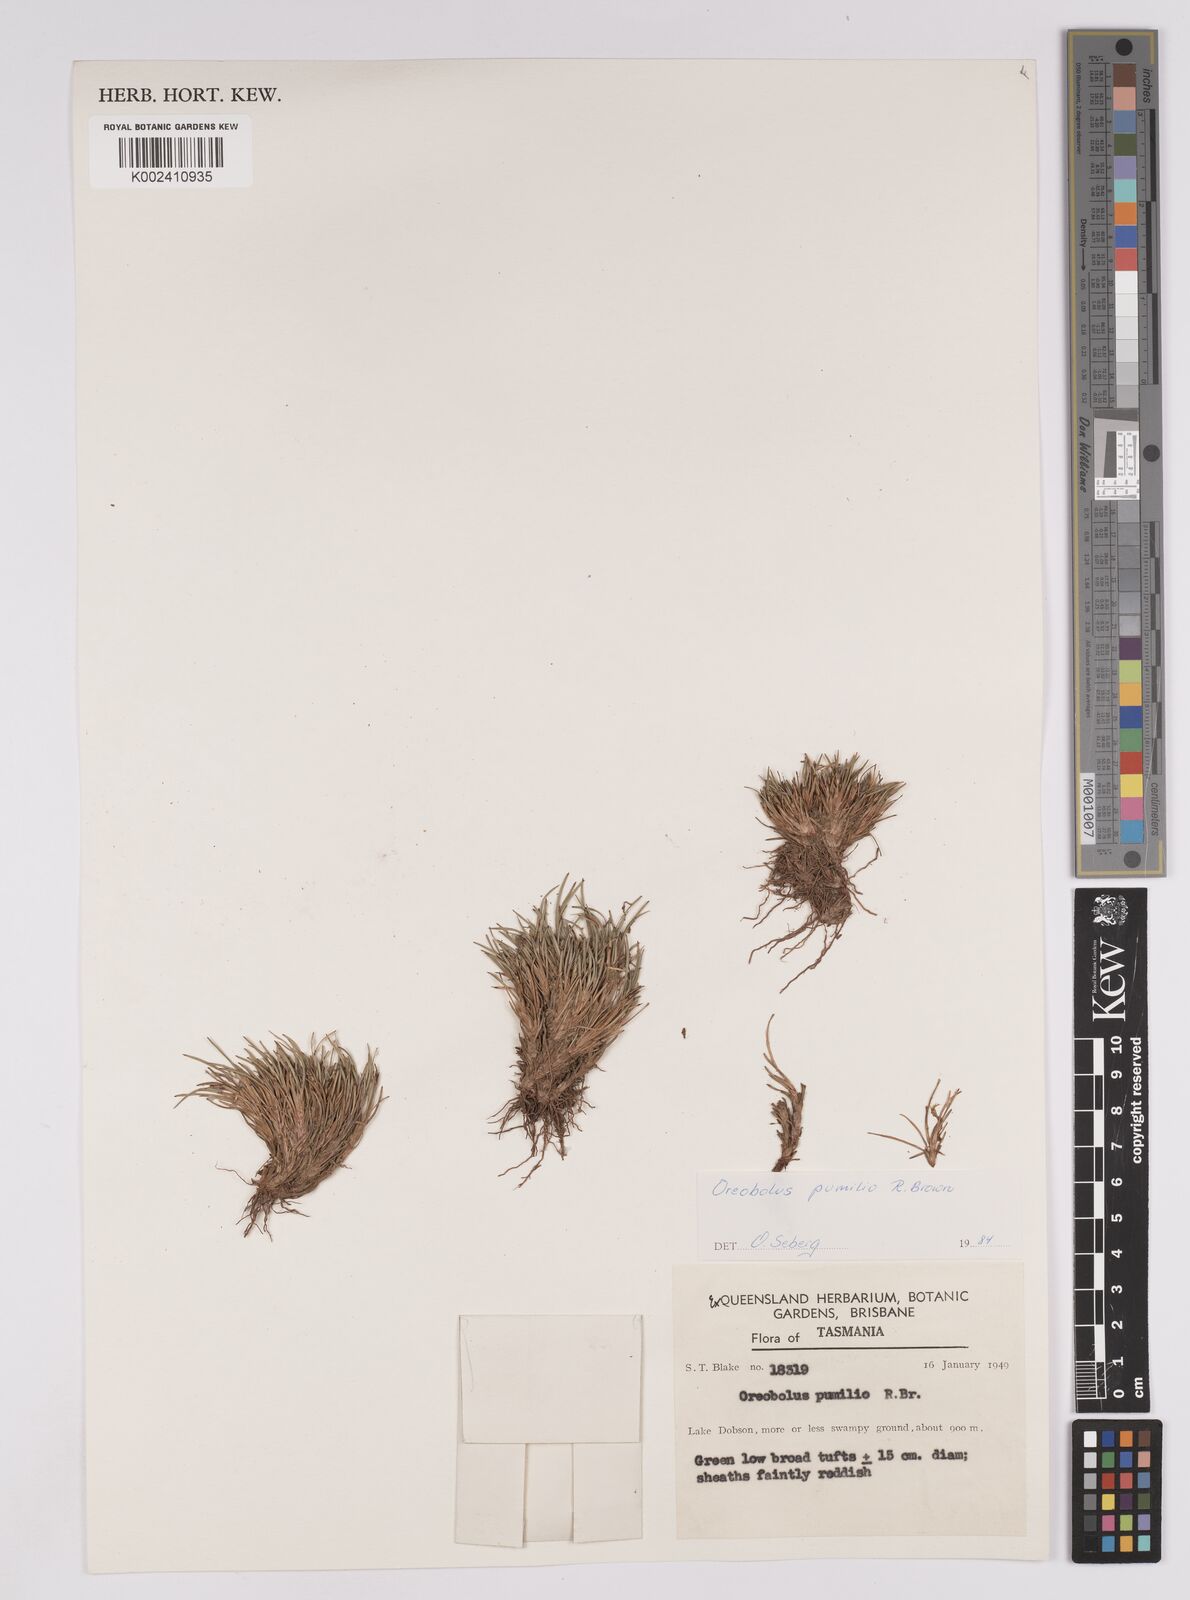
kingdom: Plantae
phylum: Tracheophyta
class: Liliopsida
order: Poales
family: Cyperaceae
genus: Oreobolus
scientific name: Oreobolus pumilio
